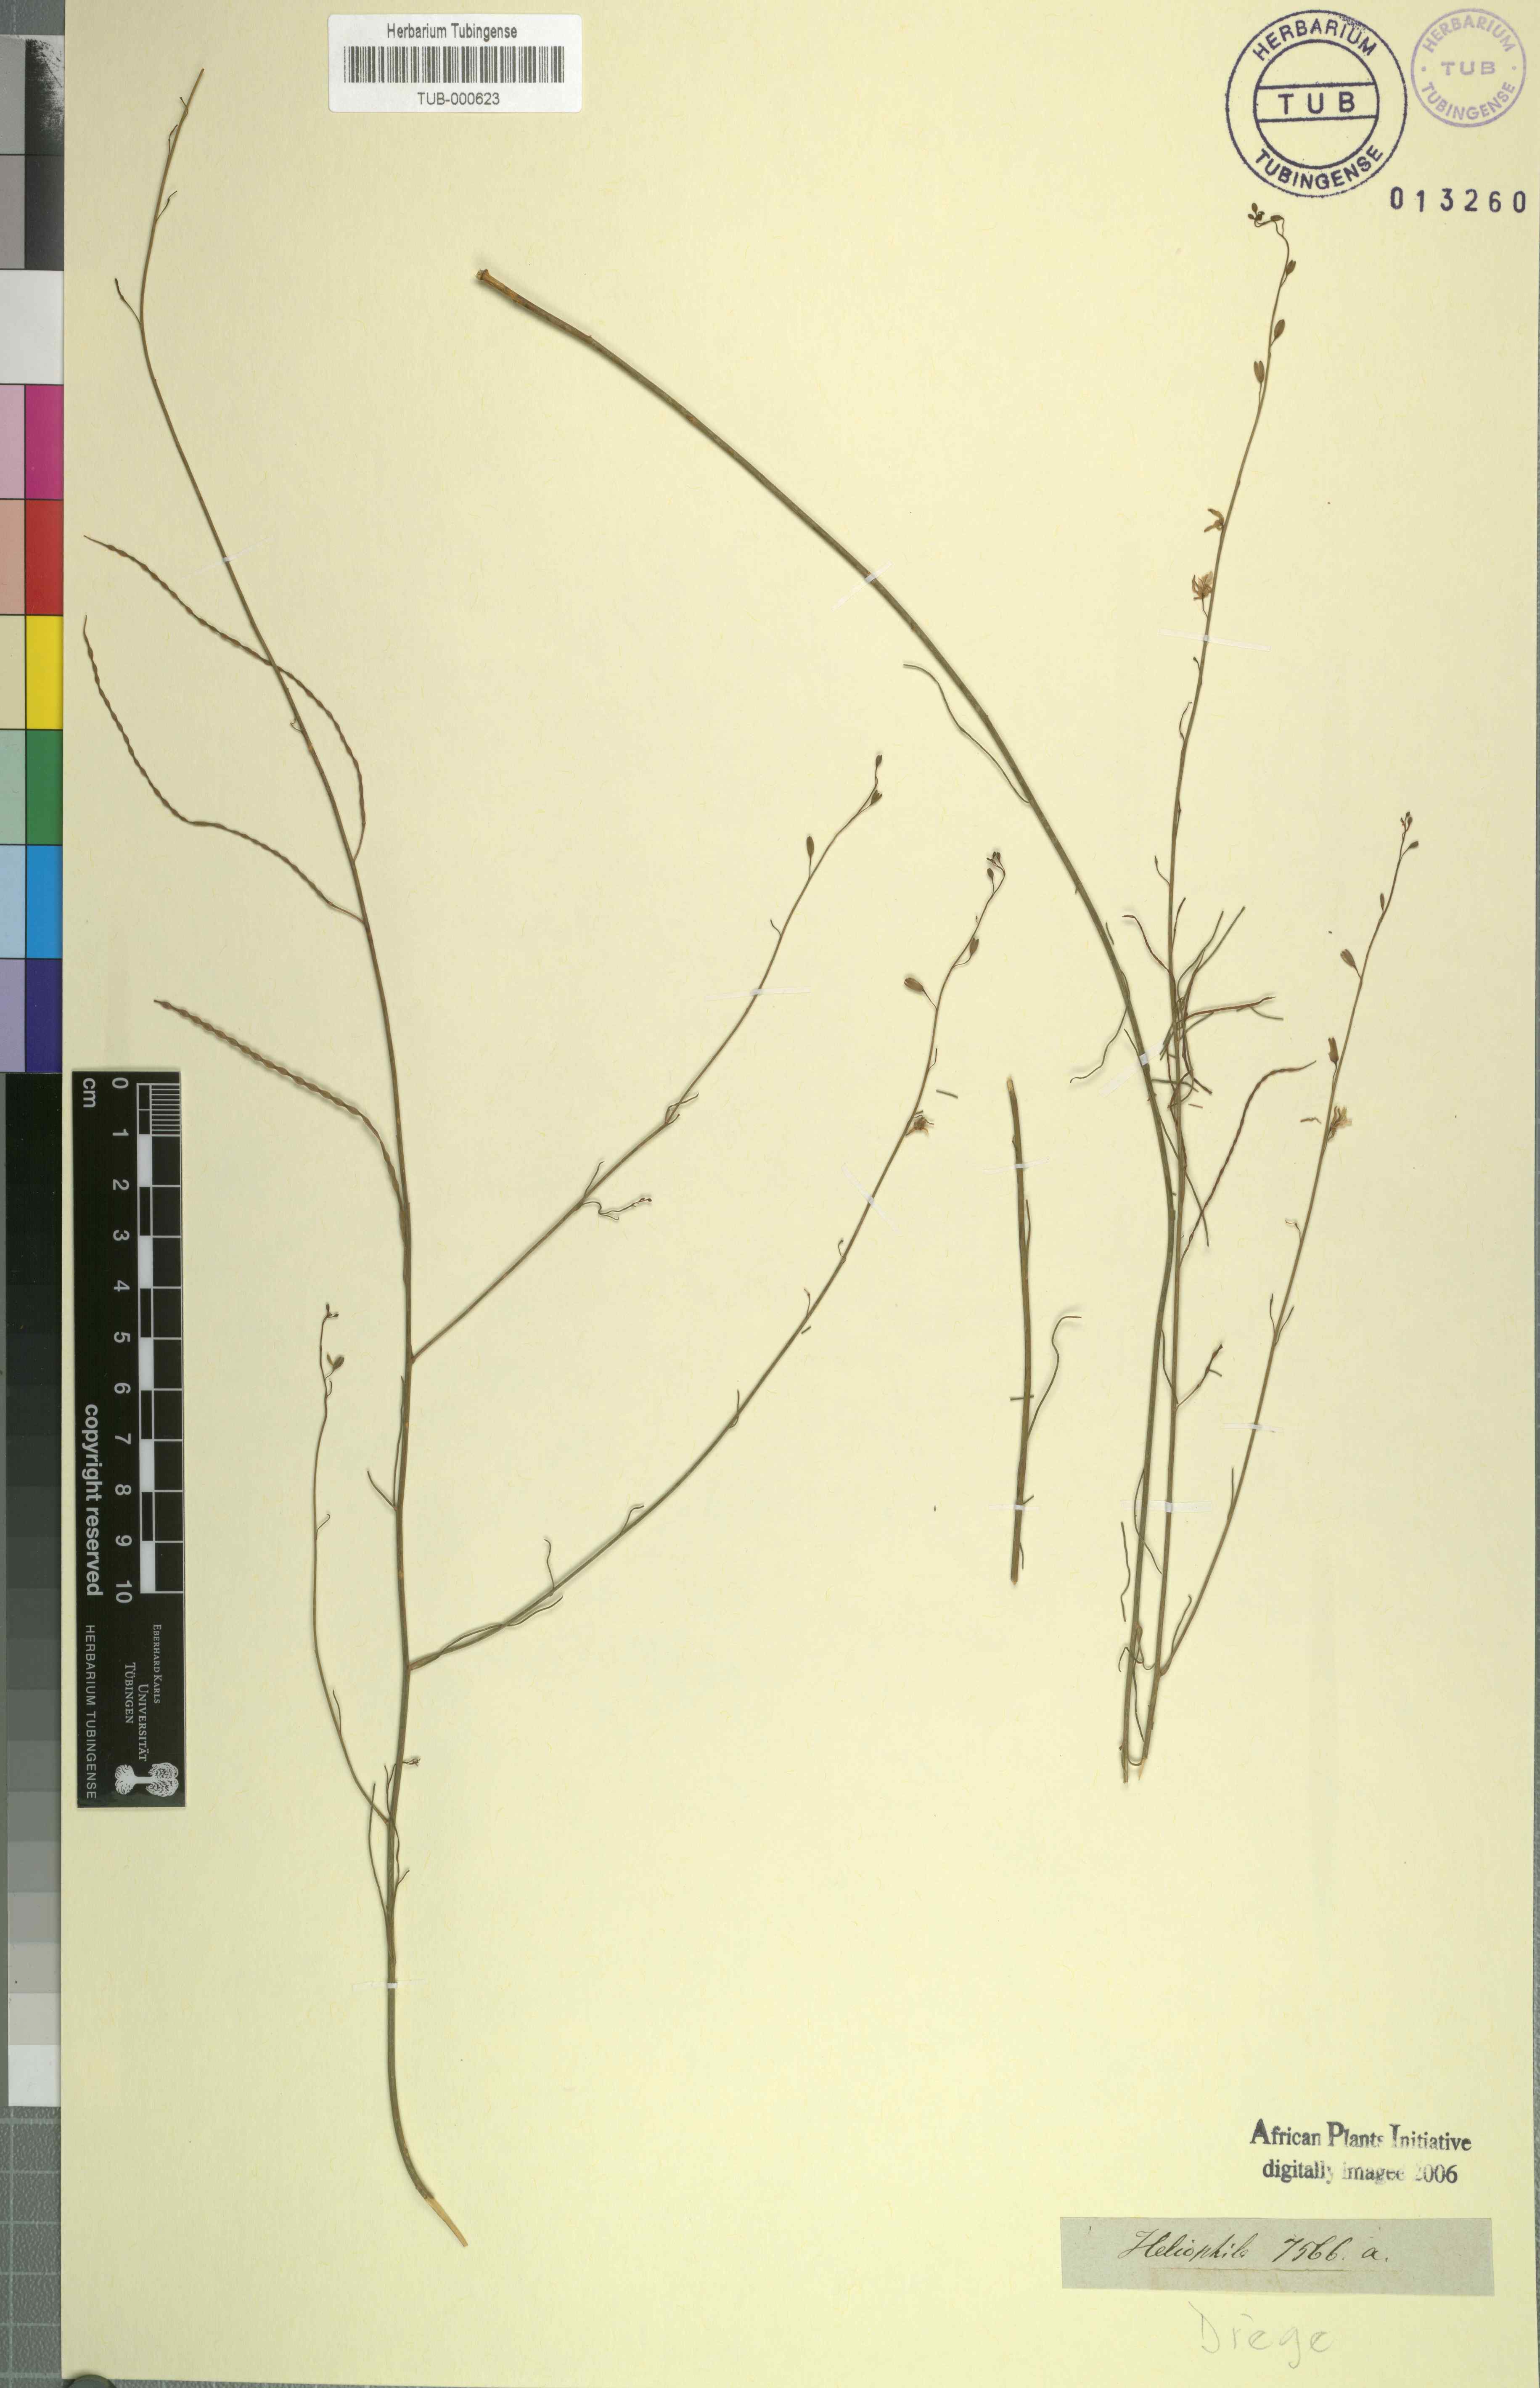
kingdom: Plantae
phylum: Tracheophyta
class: Magnoliopsida
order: Brassicales
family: Brassicaceae
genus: Heliophila
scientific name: Heliophila
